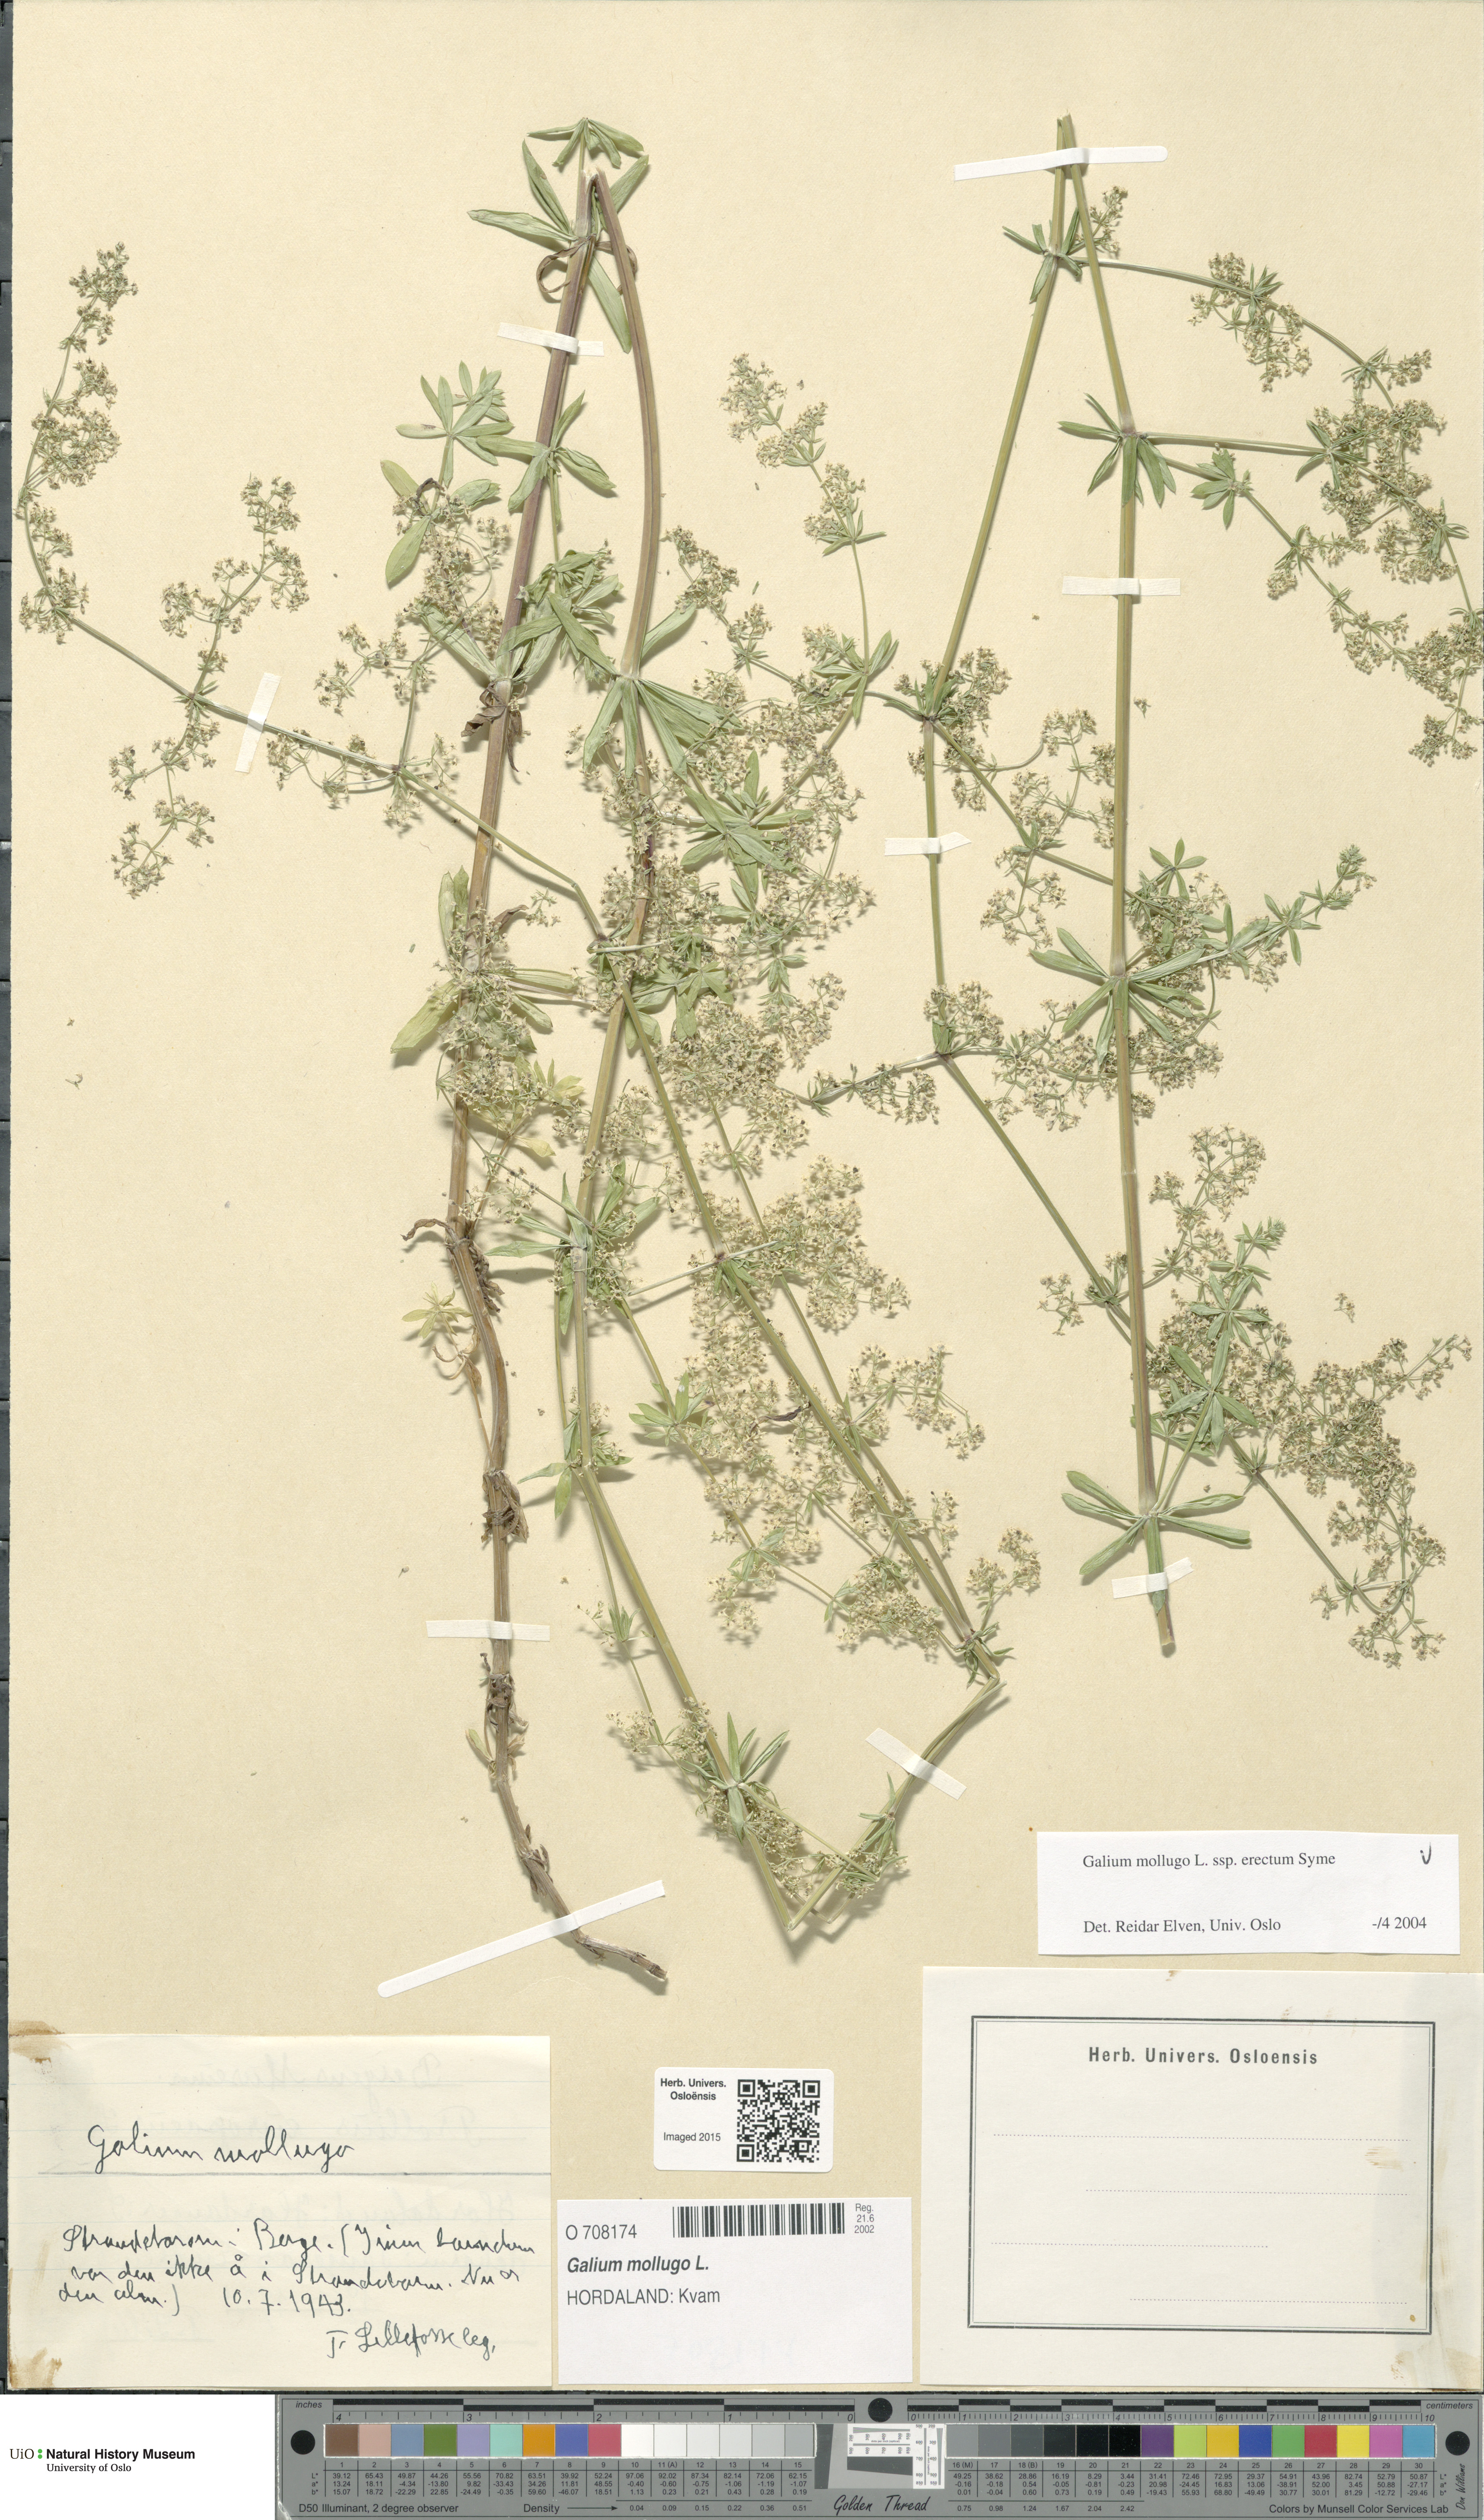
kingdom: Plantae
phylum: Tracheophyta
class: Magnoliopsida
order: Gentianales
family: Rubiaceae
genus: Galium
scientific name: Galium album
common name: White bedstraw
